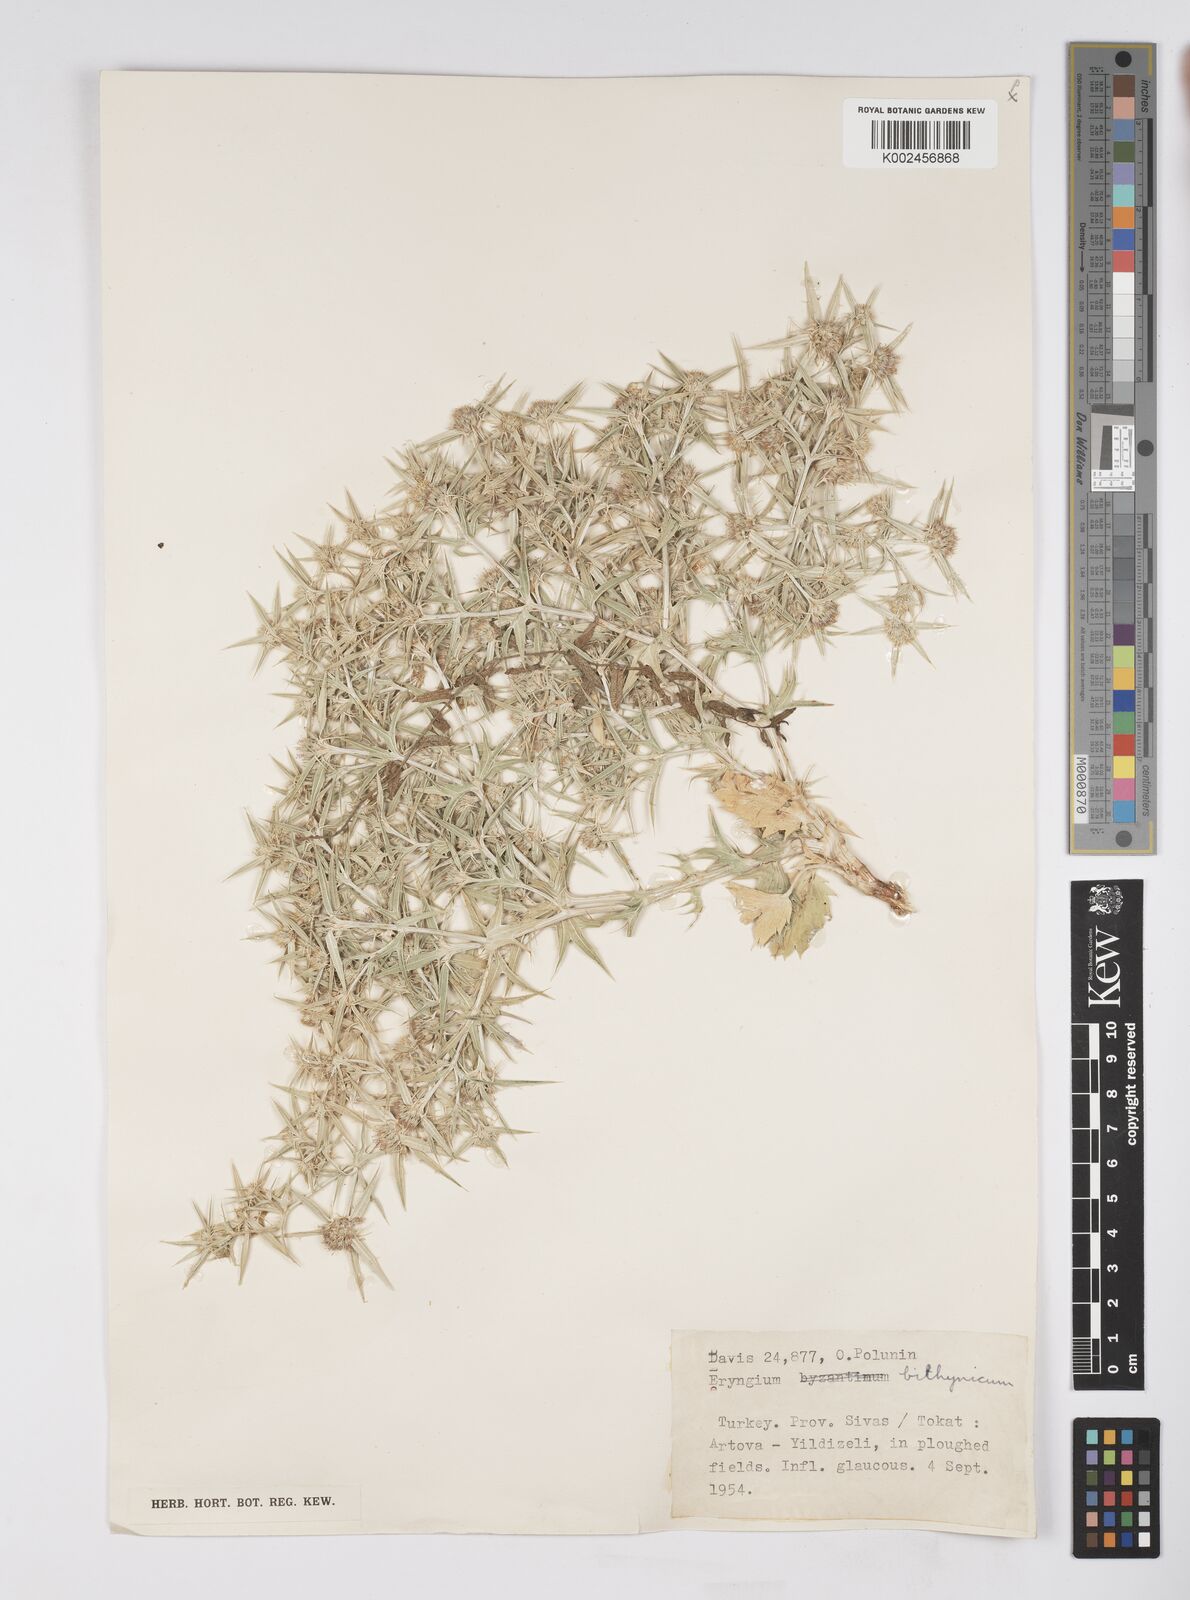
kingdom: Plantae
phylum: Tracheophyta
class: Magnoliopsida
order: Apiales
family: Apiaceae
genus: Eryngium
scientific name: Eryngium bithynicum
